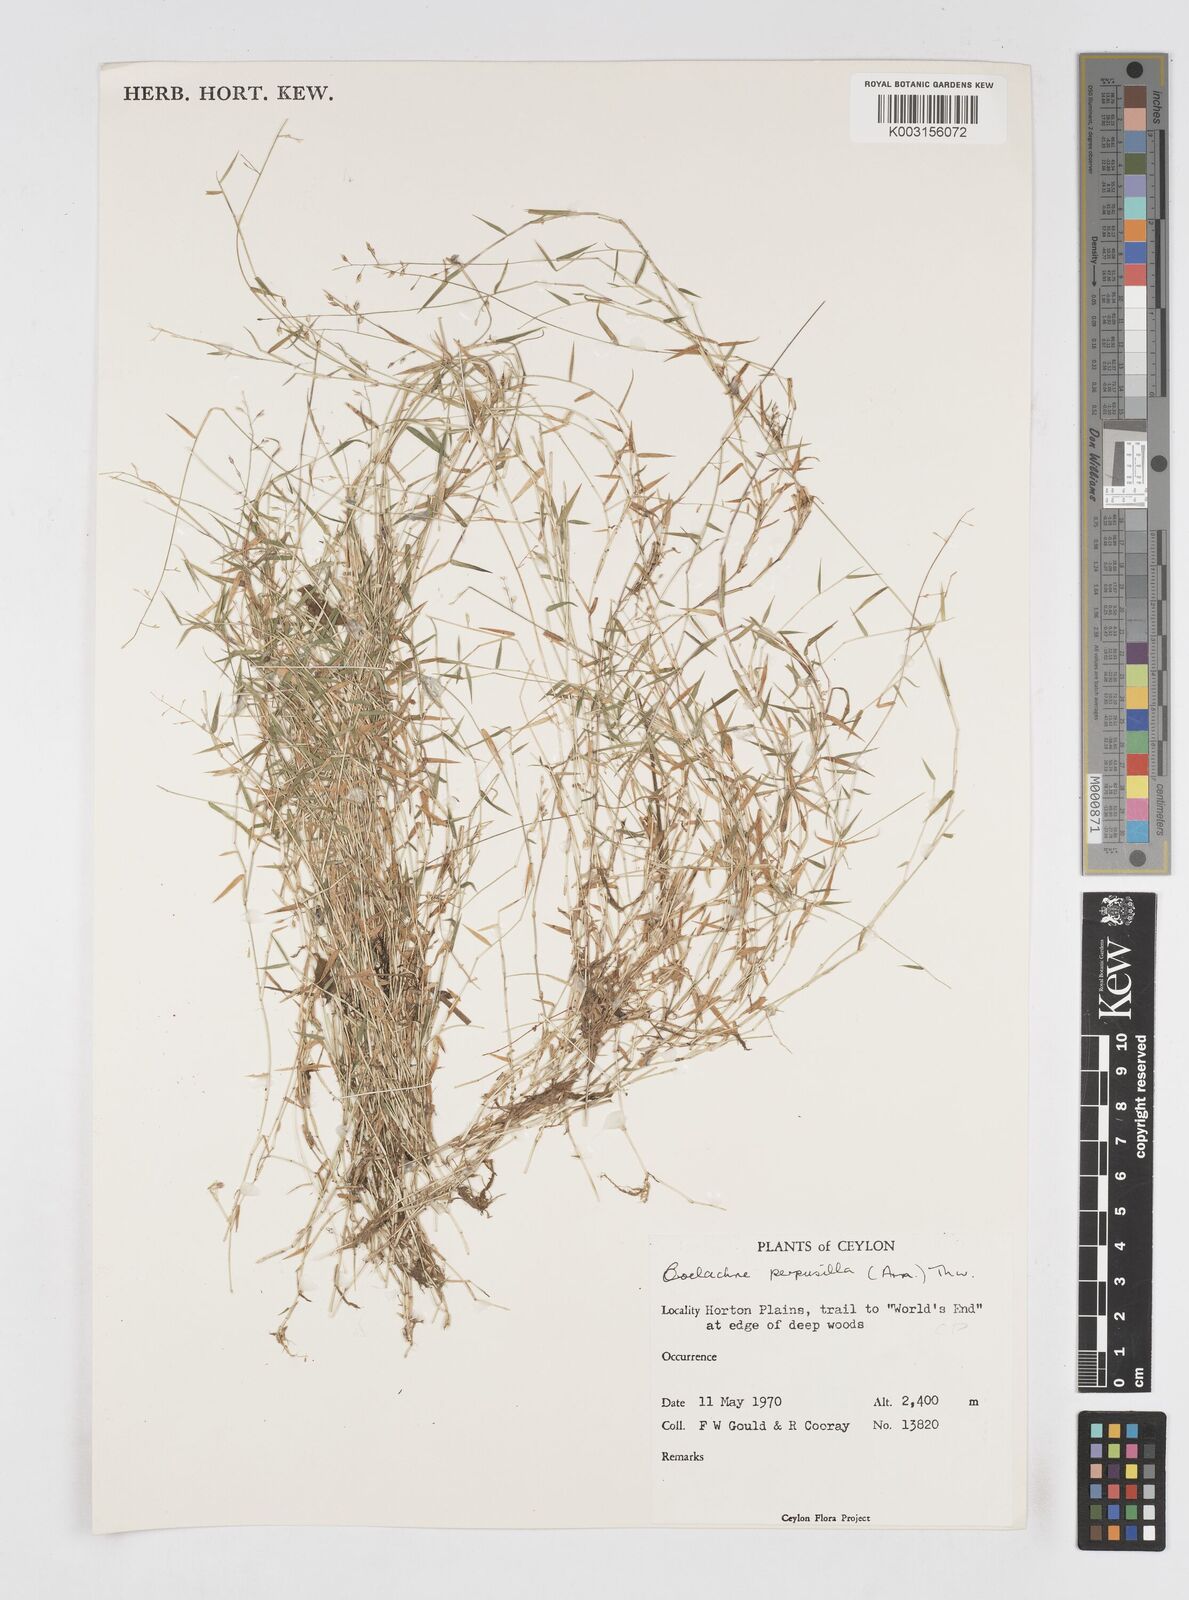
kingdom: Plantae
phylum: Tracheophyta
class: Liliopsida
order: Poales
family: Poaceae
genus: Coelachne
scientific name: Coelachne perpusilla
